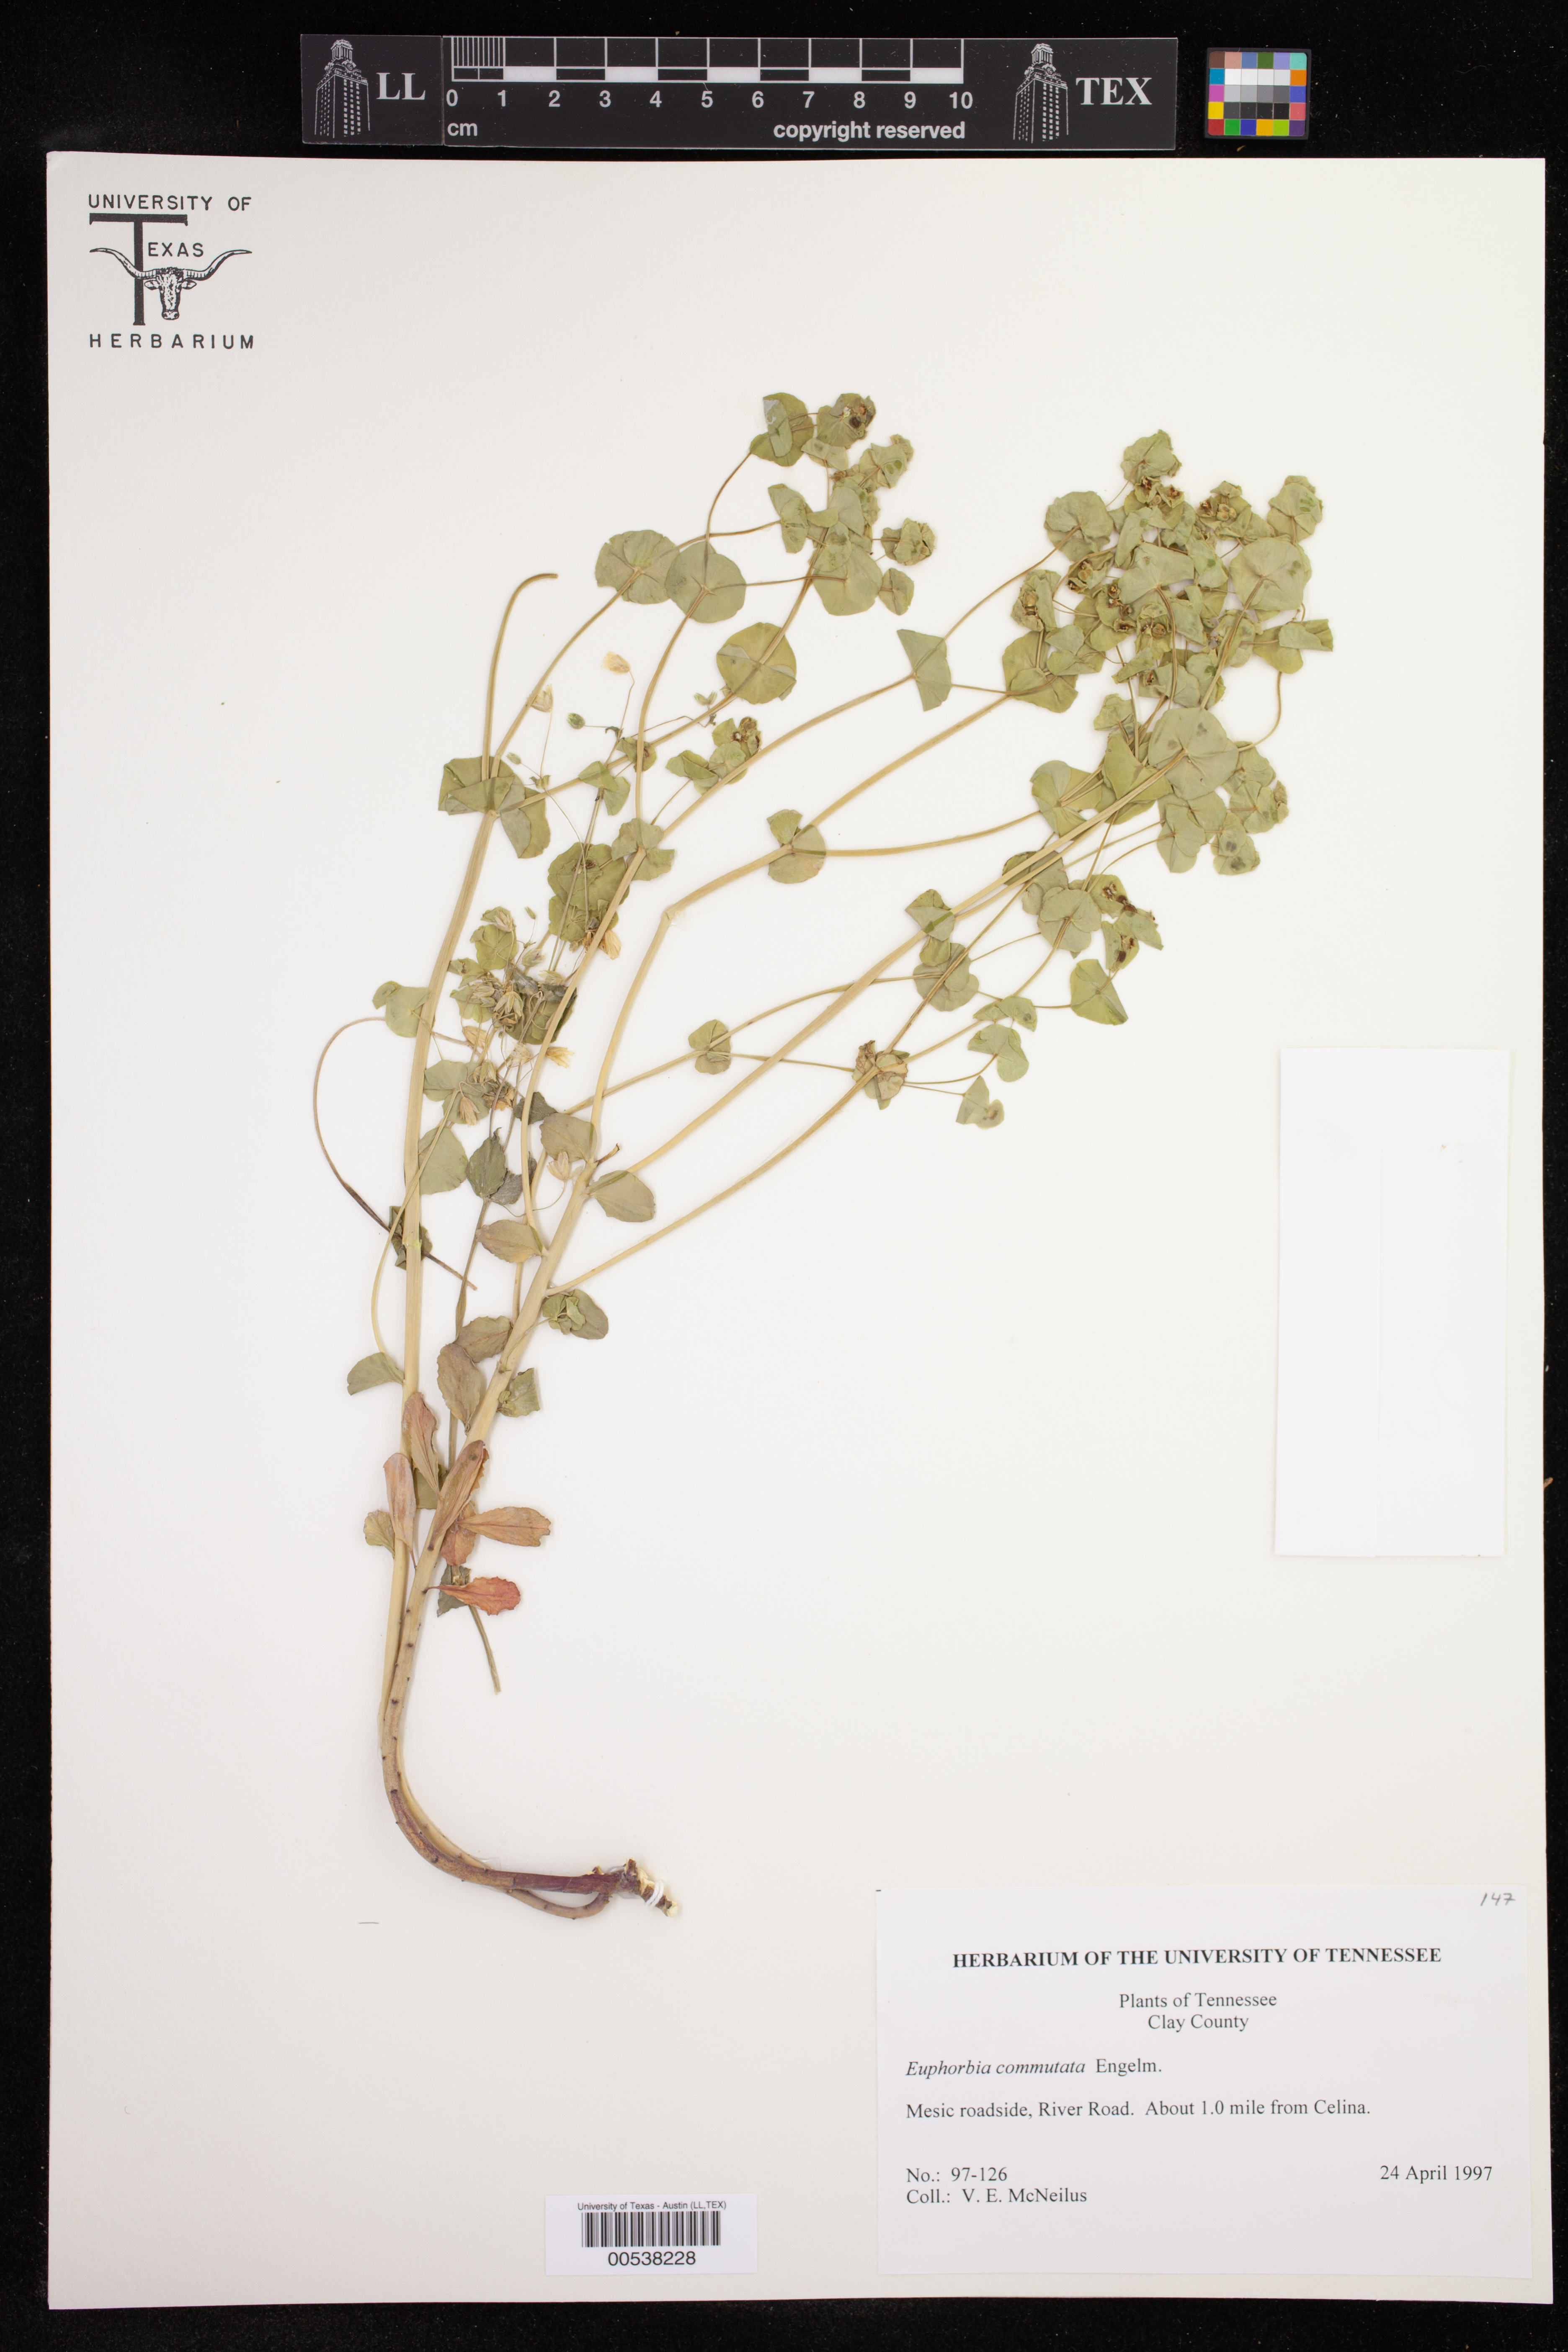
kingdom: Plantae
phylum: Tracheophyta
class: Magnoliopsida
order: Malpighiales
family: Euphorbiaceae
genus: Euphorbia
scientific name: Euphorbia commutata
